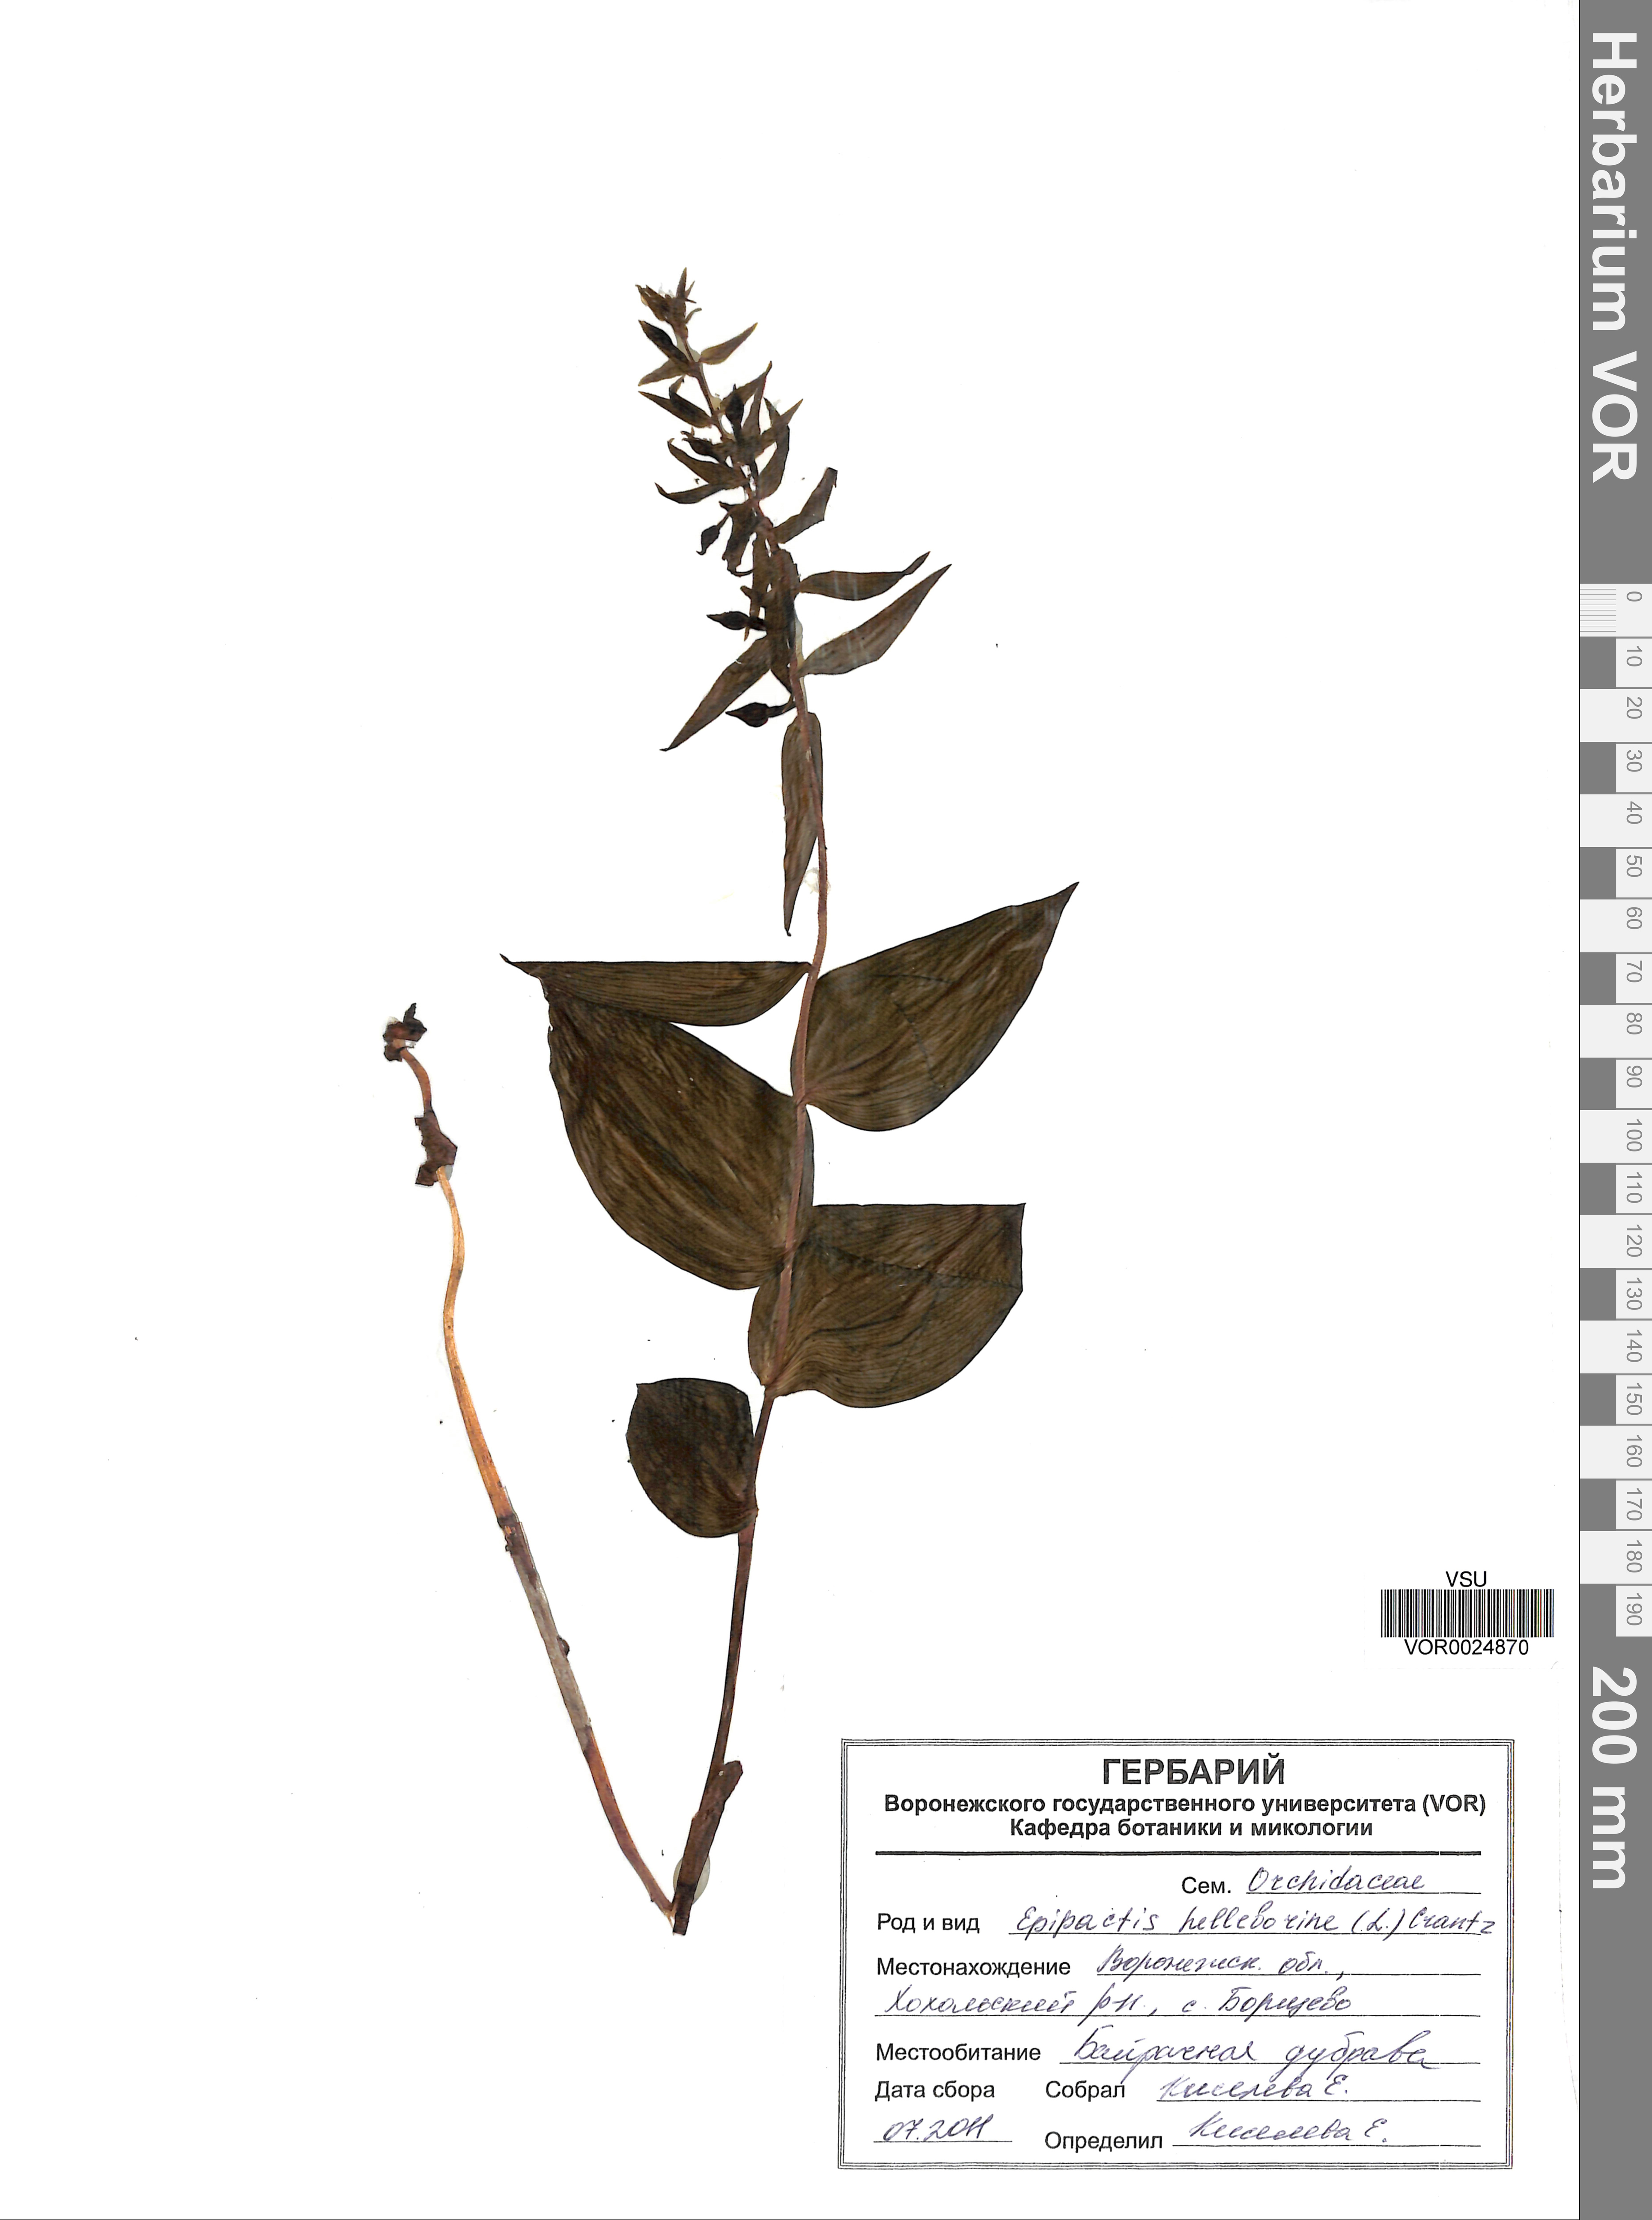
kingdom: Plantae
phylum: Tracheophyta
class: Liliopsida
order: Asparagales
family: Orchidaceae
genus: Epipactis
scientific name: Epipactis helleborine
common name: Broad-leaved helleborine
